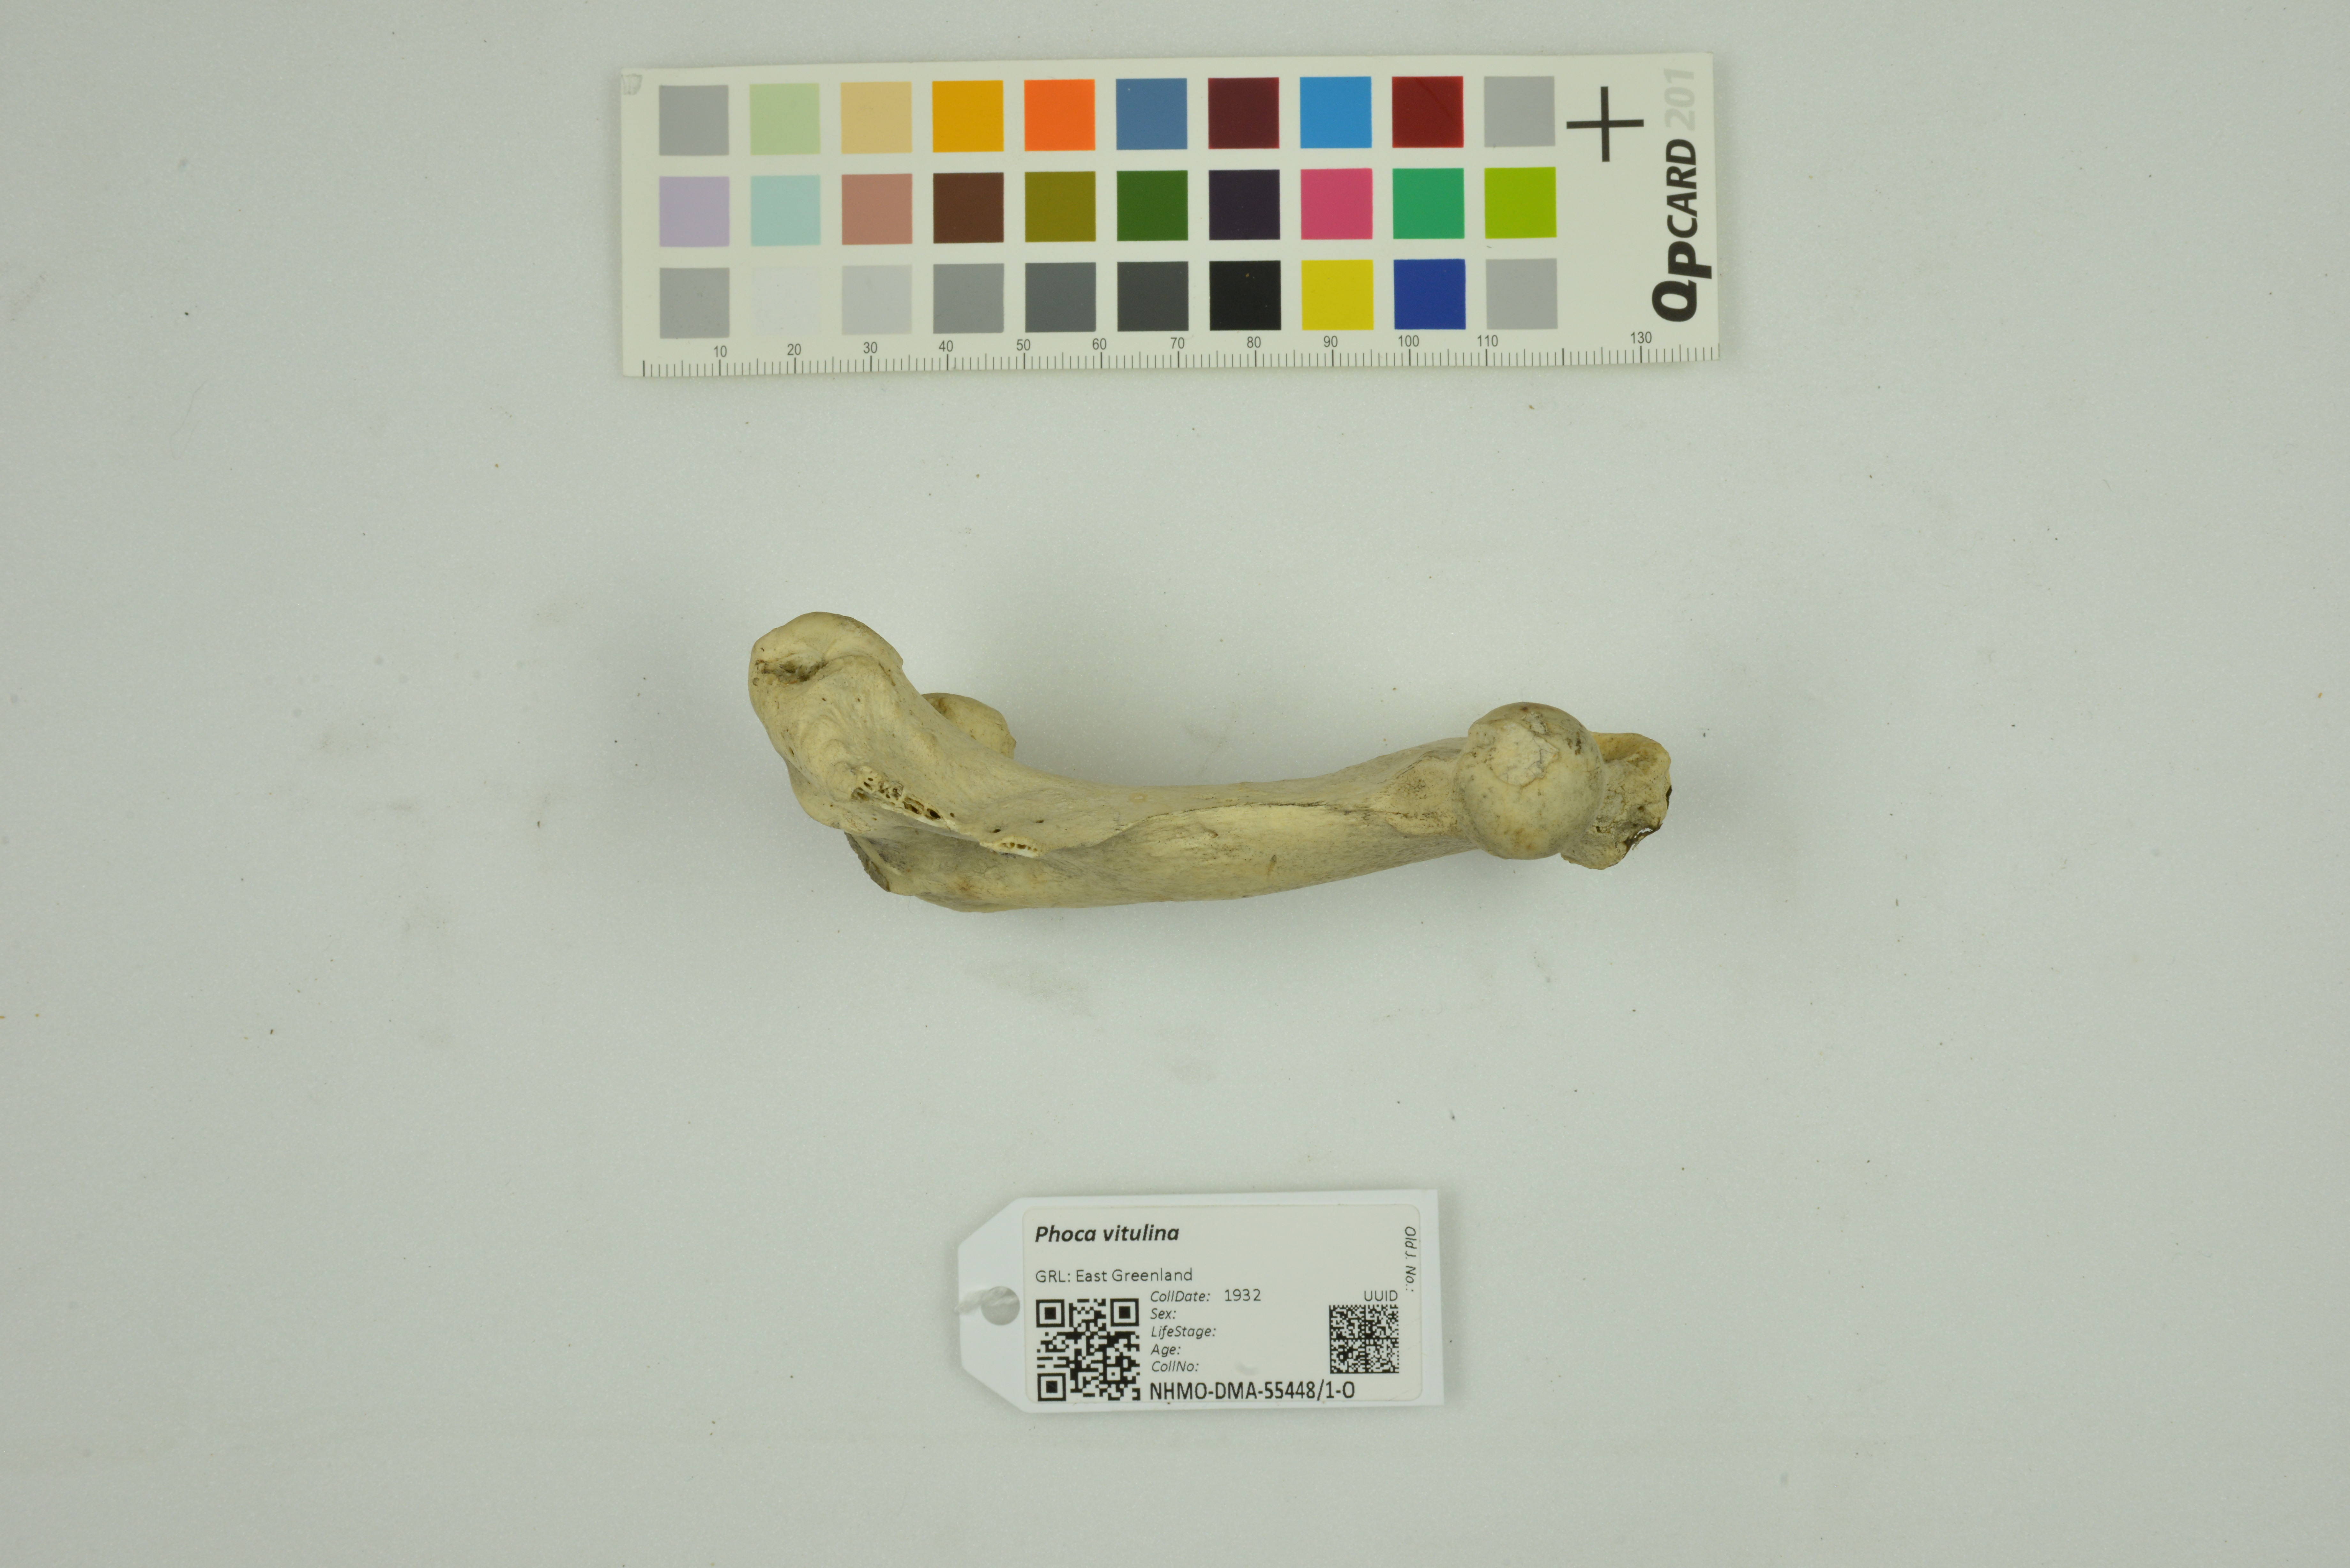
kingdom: Animalia
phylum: Chordata
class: Mammalia
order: Carnivora
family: Phocidae
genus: Phoca
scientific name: Phoca vitulina
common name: Harbor seal
